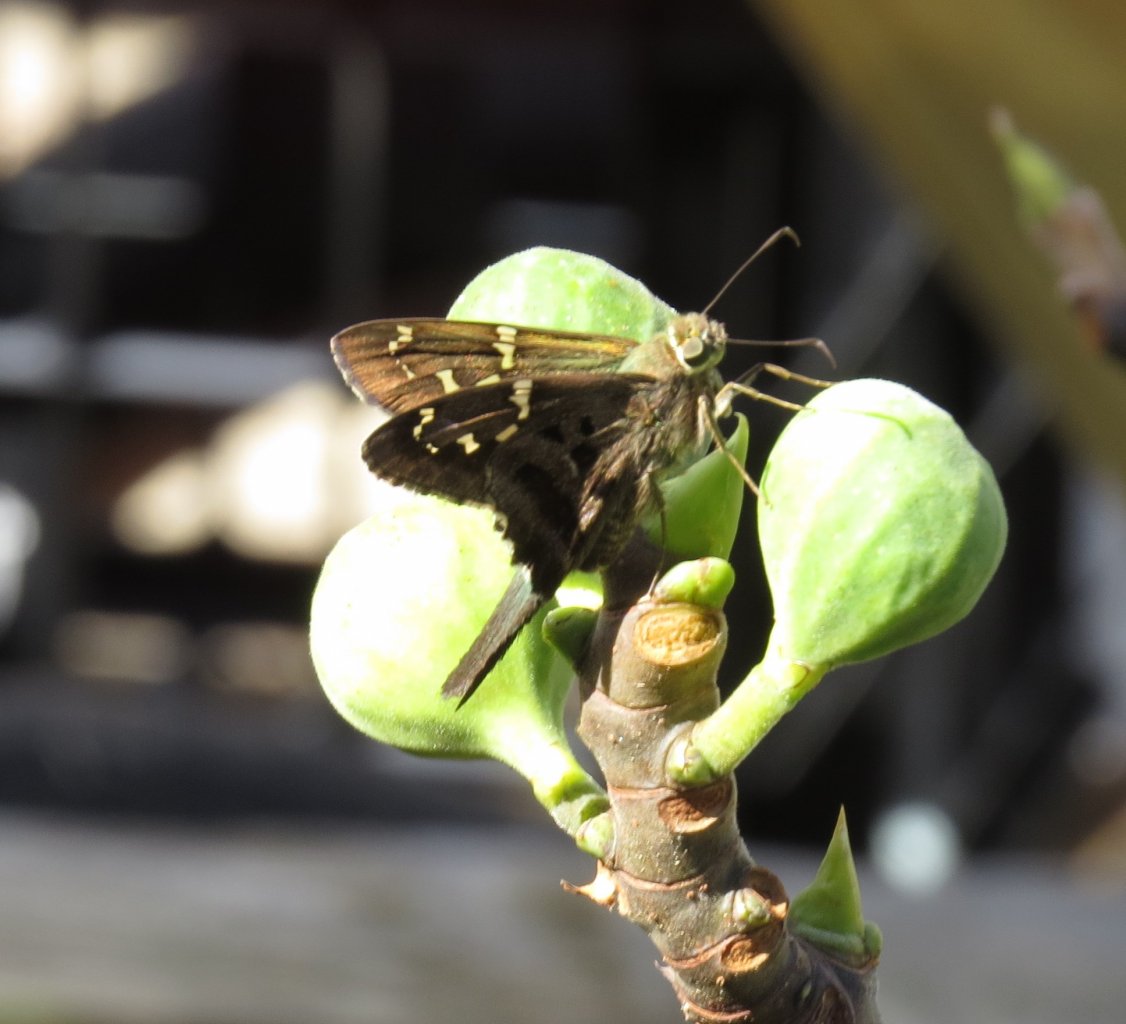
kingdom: Animalia
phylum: Arthropoda
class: Insecta
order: Lepidoptera
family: Hesperiidae
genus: Urbanus
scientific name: Urbanus proteus
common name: Long-tailed Skipper
